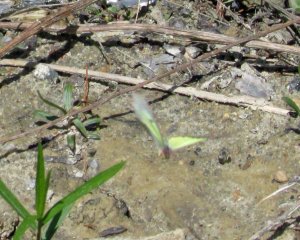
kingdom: Animalia
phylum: Arthropoda
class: Insecta
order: Lepidoptera
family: Pieridae
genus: Colias
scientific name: Colias philodice
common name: Clouded Sulphur
